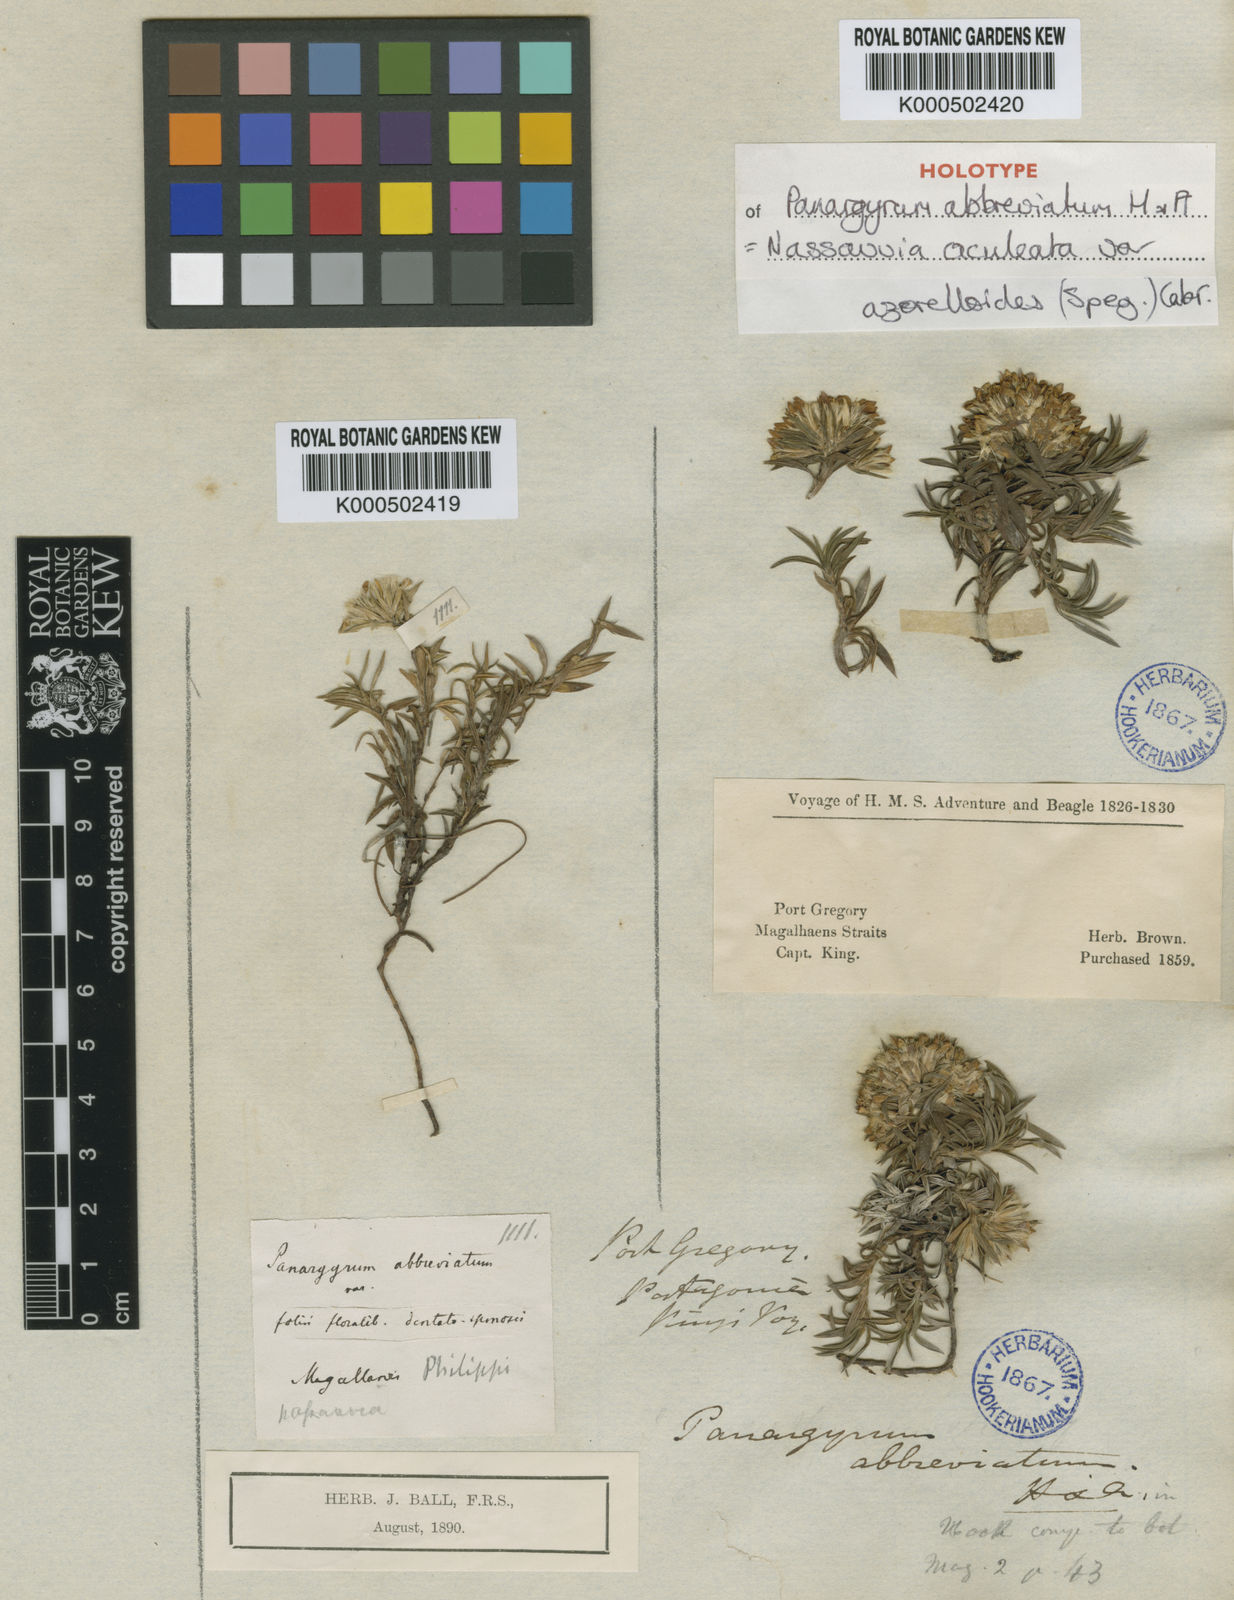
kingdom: Plantae
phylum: Tracheophyta
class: Magnoliopsida
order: Asterales
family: Asteraceae
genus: Nassauvia
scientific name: Nassauvia aculeata
